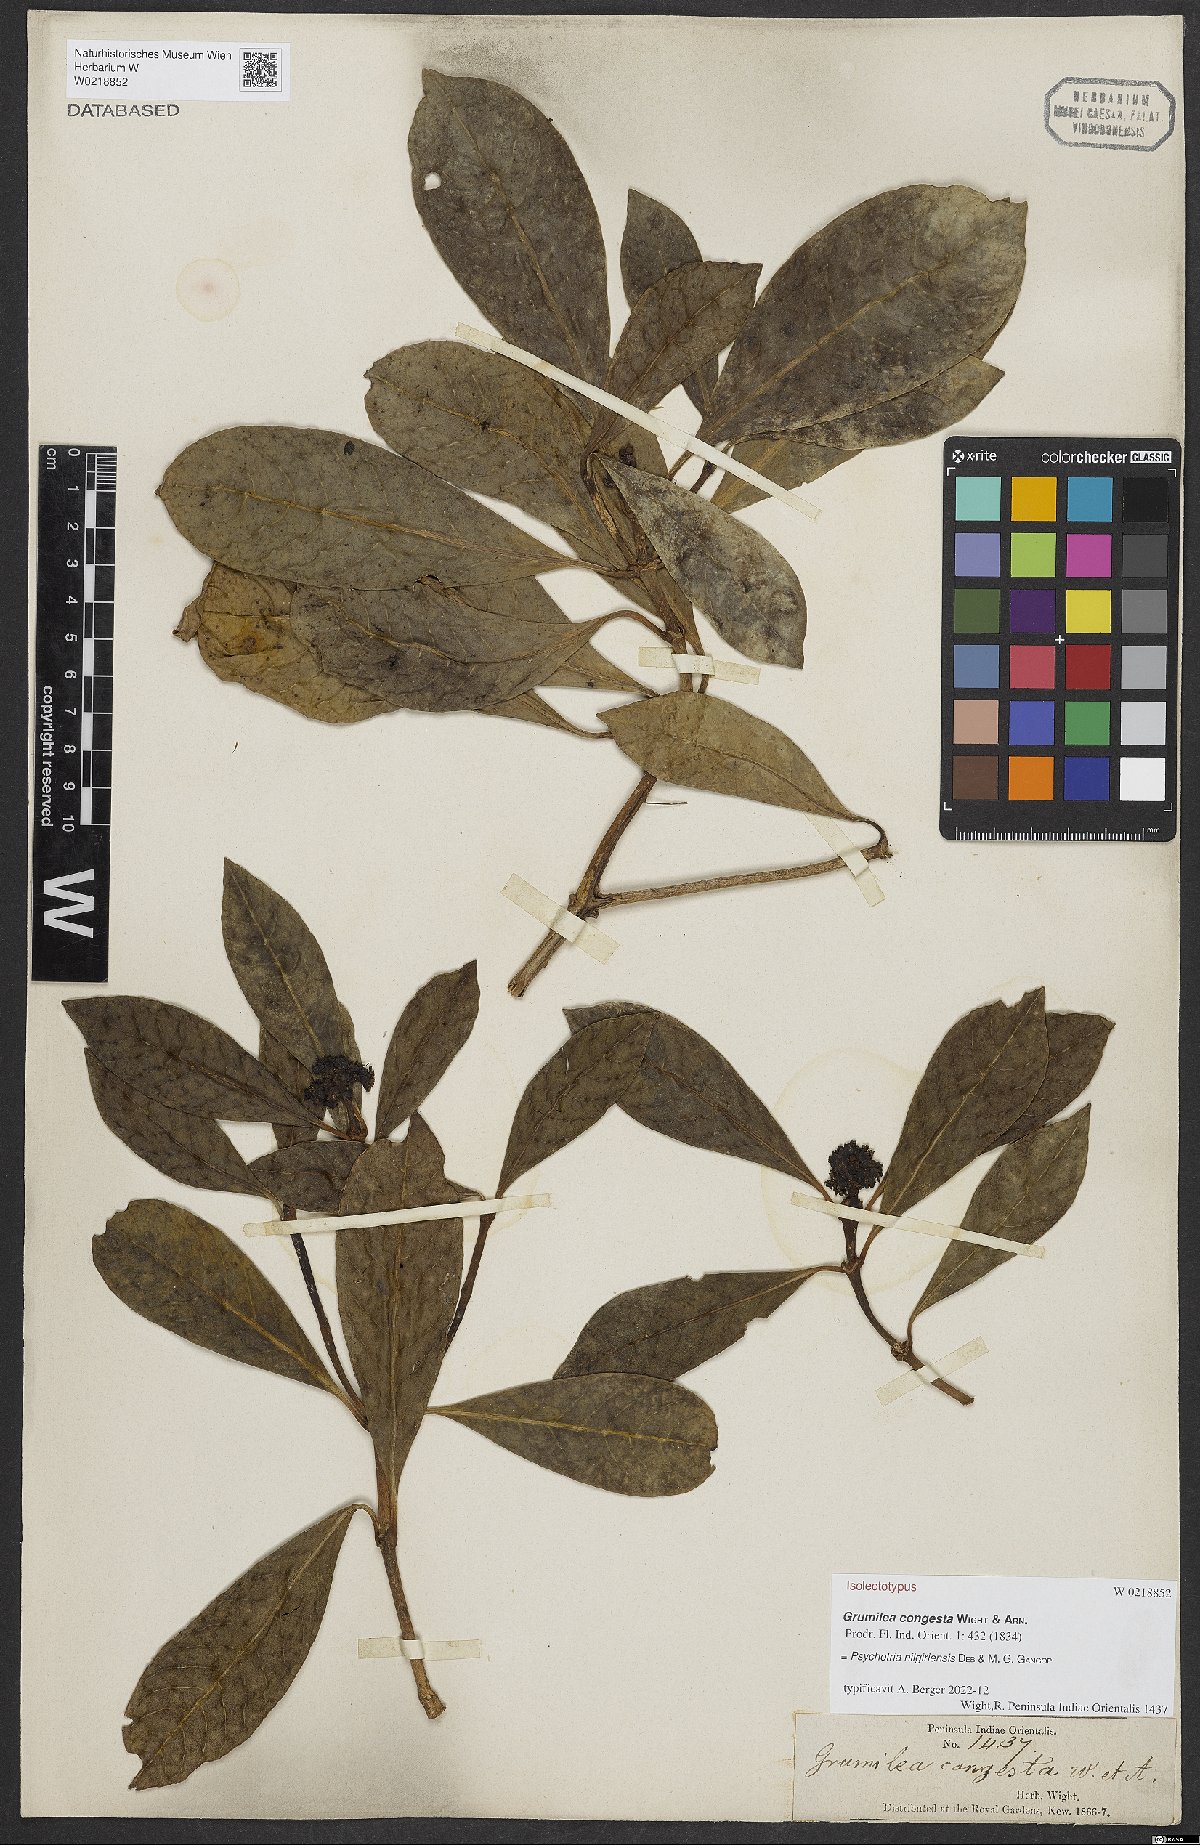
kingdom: Plantae
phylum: Tracheophyta
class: Magnoliopsida
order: Gentianales
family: Rubiaceae
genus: Psychotria
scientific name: Psychotria nilgiriensis
